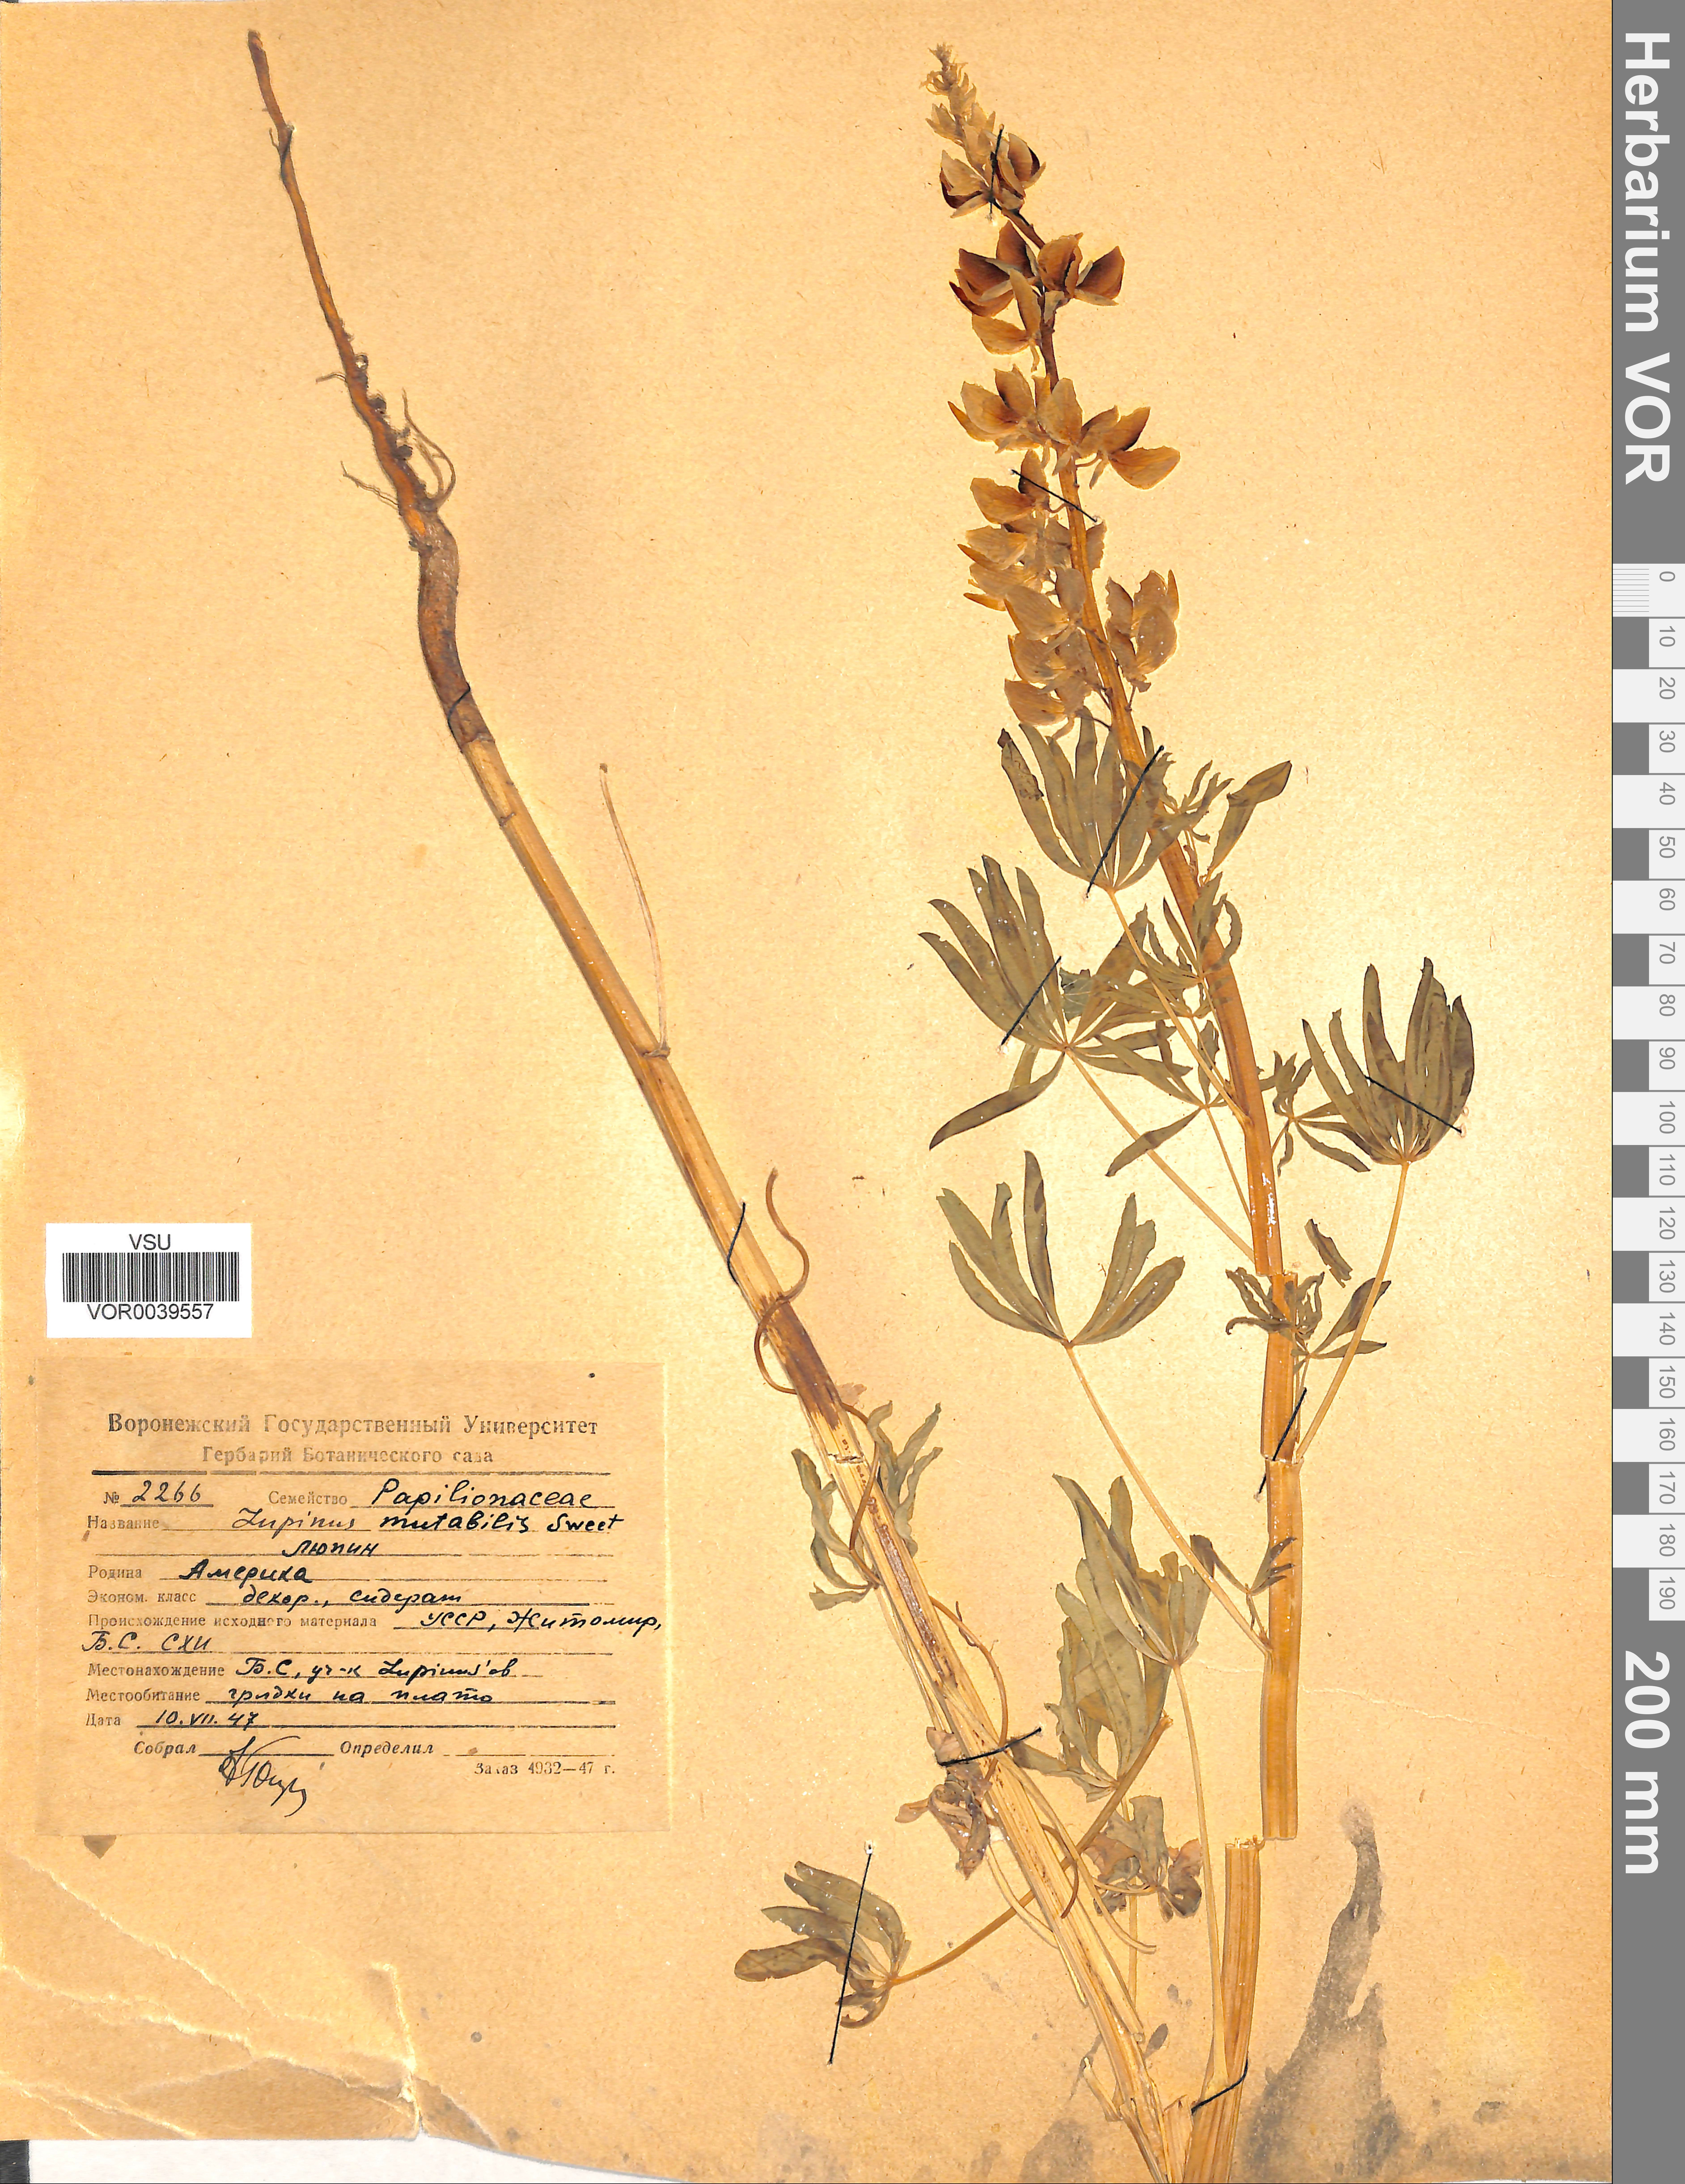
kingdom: Plantae
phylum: Tracheophyta
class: Magnoliopsida
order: Fabales
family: Fabaceae
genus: Lupinus
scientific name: Lupinus mutabilis
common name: South american lupin
